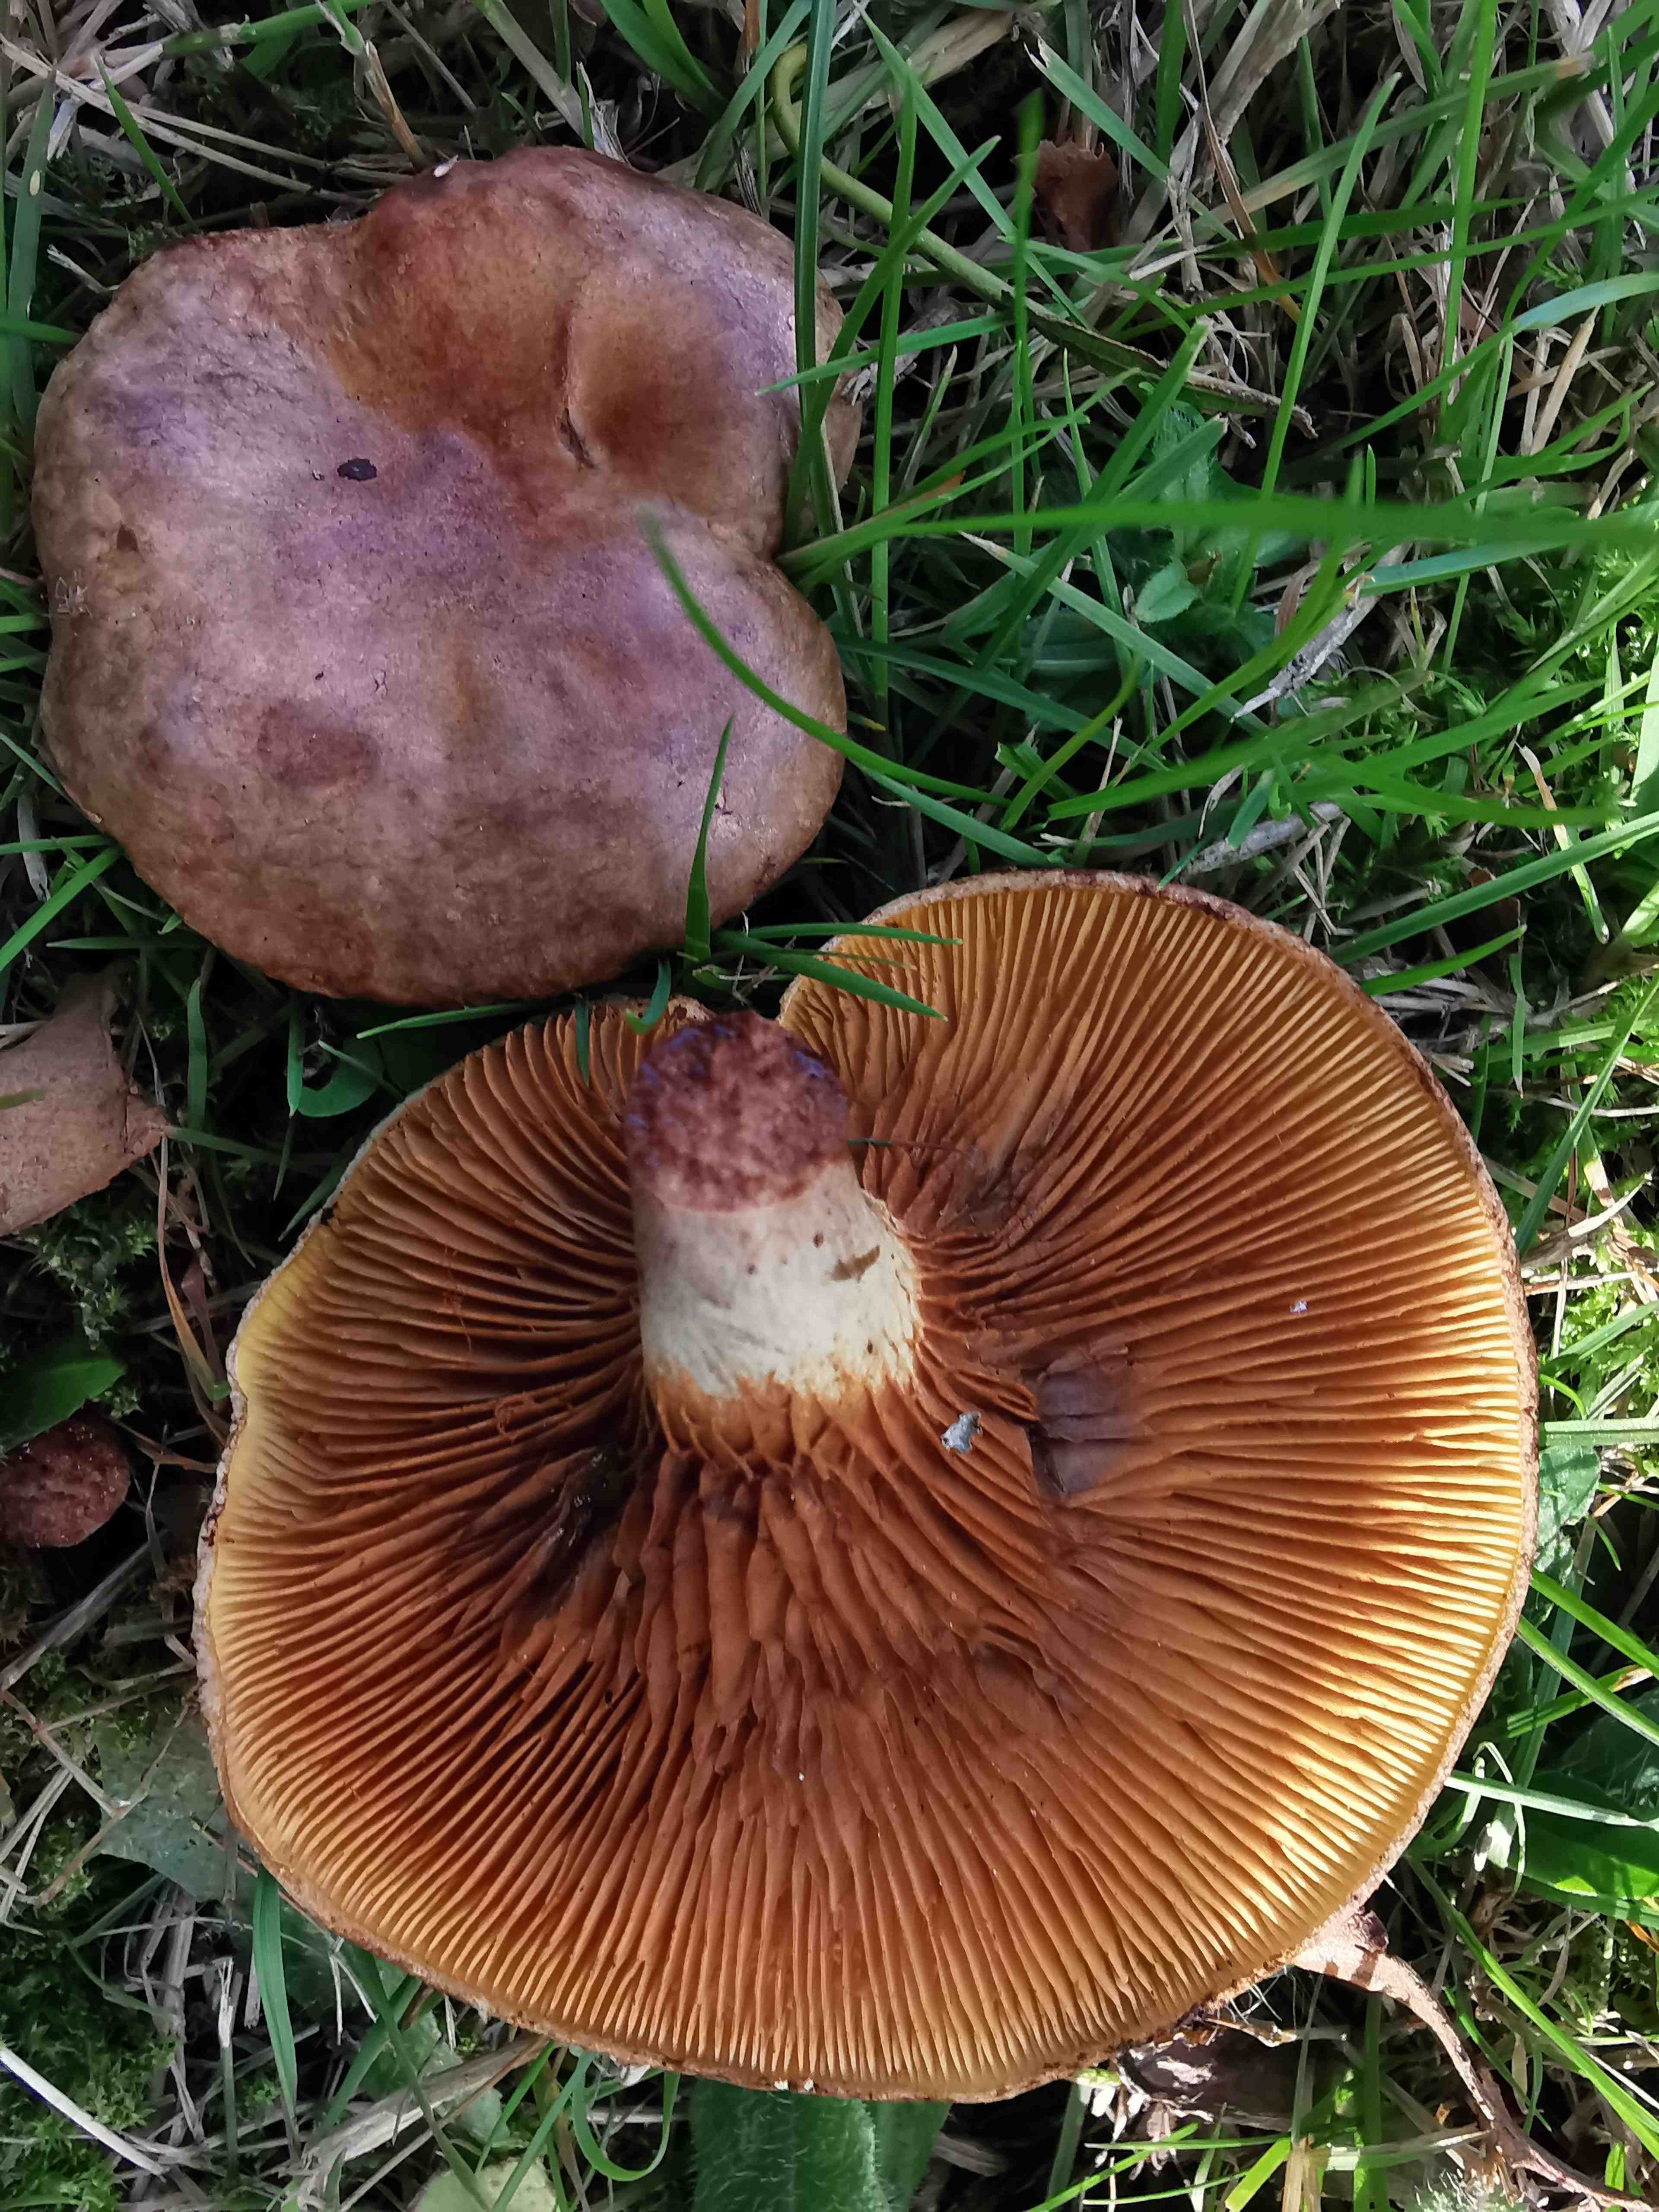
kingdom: Fungi
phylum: Basidiomycota
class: Agaricomycetes
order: Boletales
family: Paxillaceae
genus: Paxillus
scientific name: Paxillus involutus
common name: almindelig netbladhat
